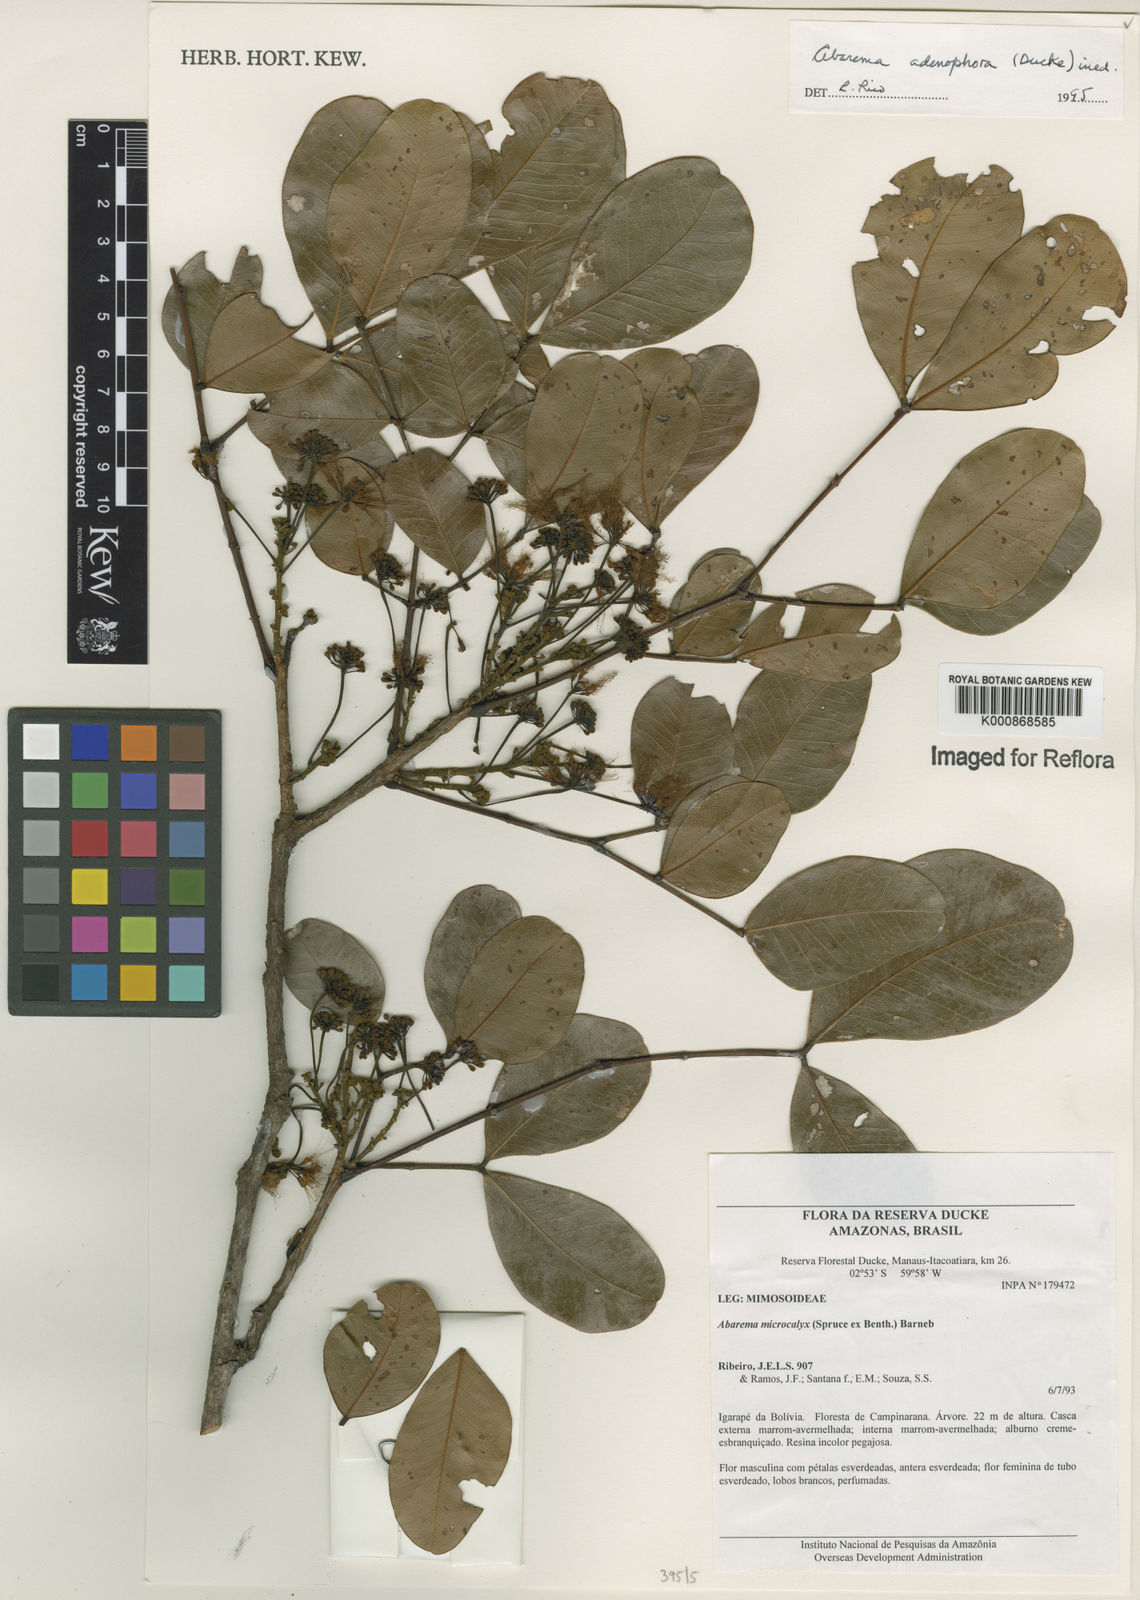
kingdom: Plantae
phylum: Tracheophyta
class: Magnoliopsida
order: Fabales
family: Fabaceae
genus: Jupunba
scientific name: Jupunba adenophora
